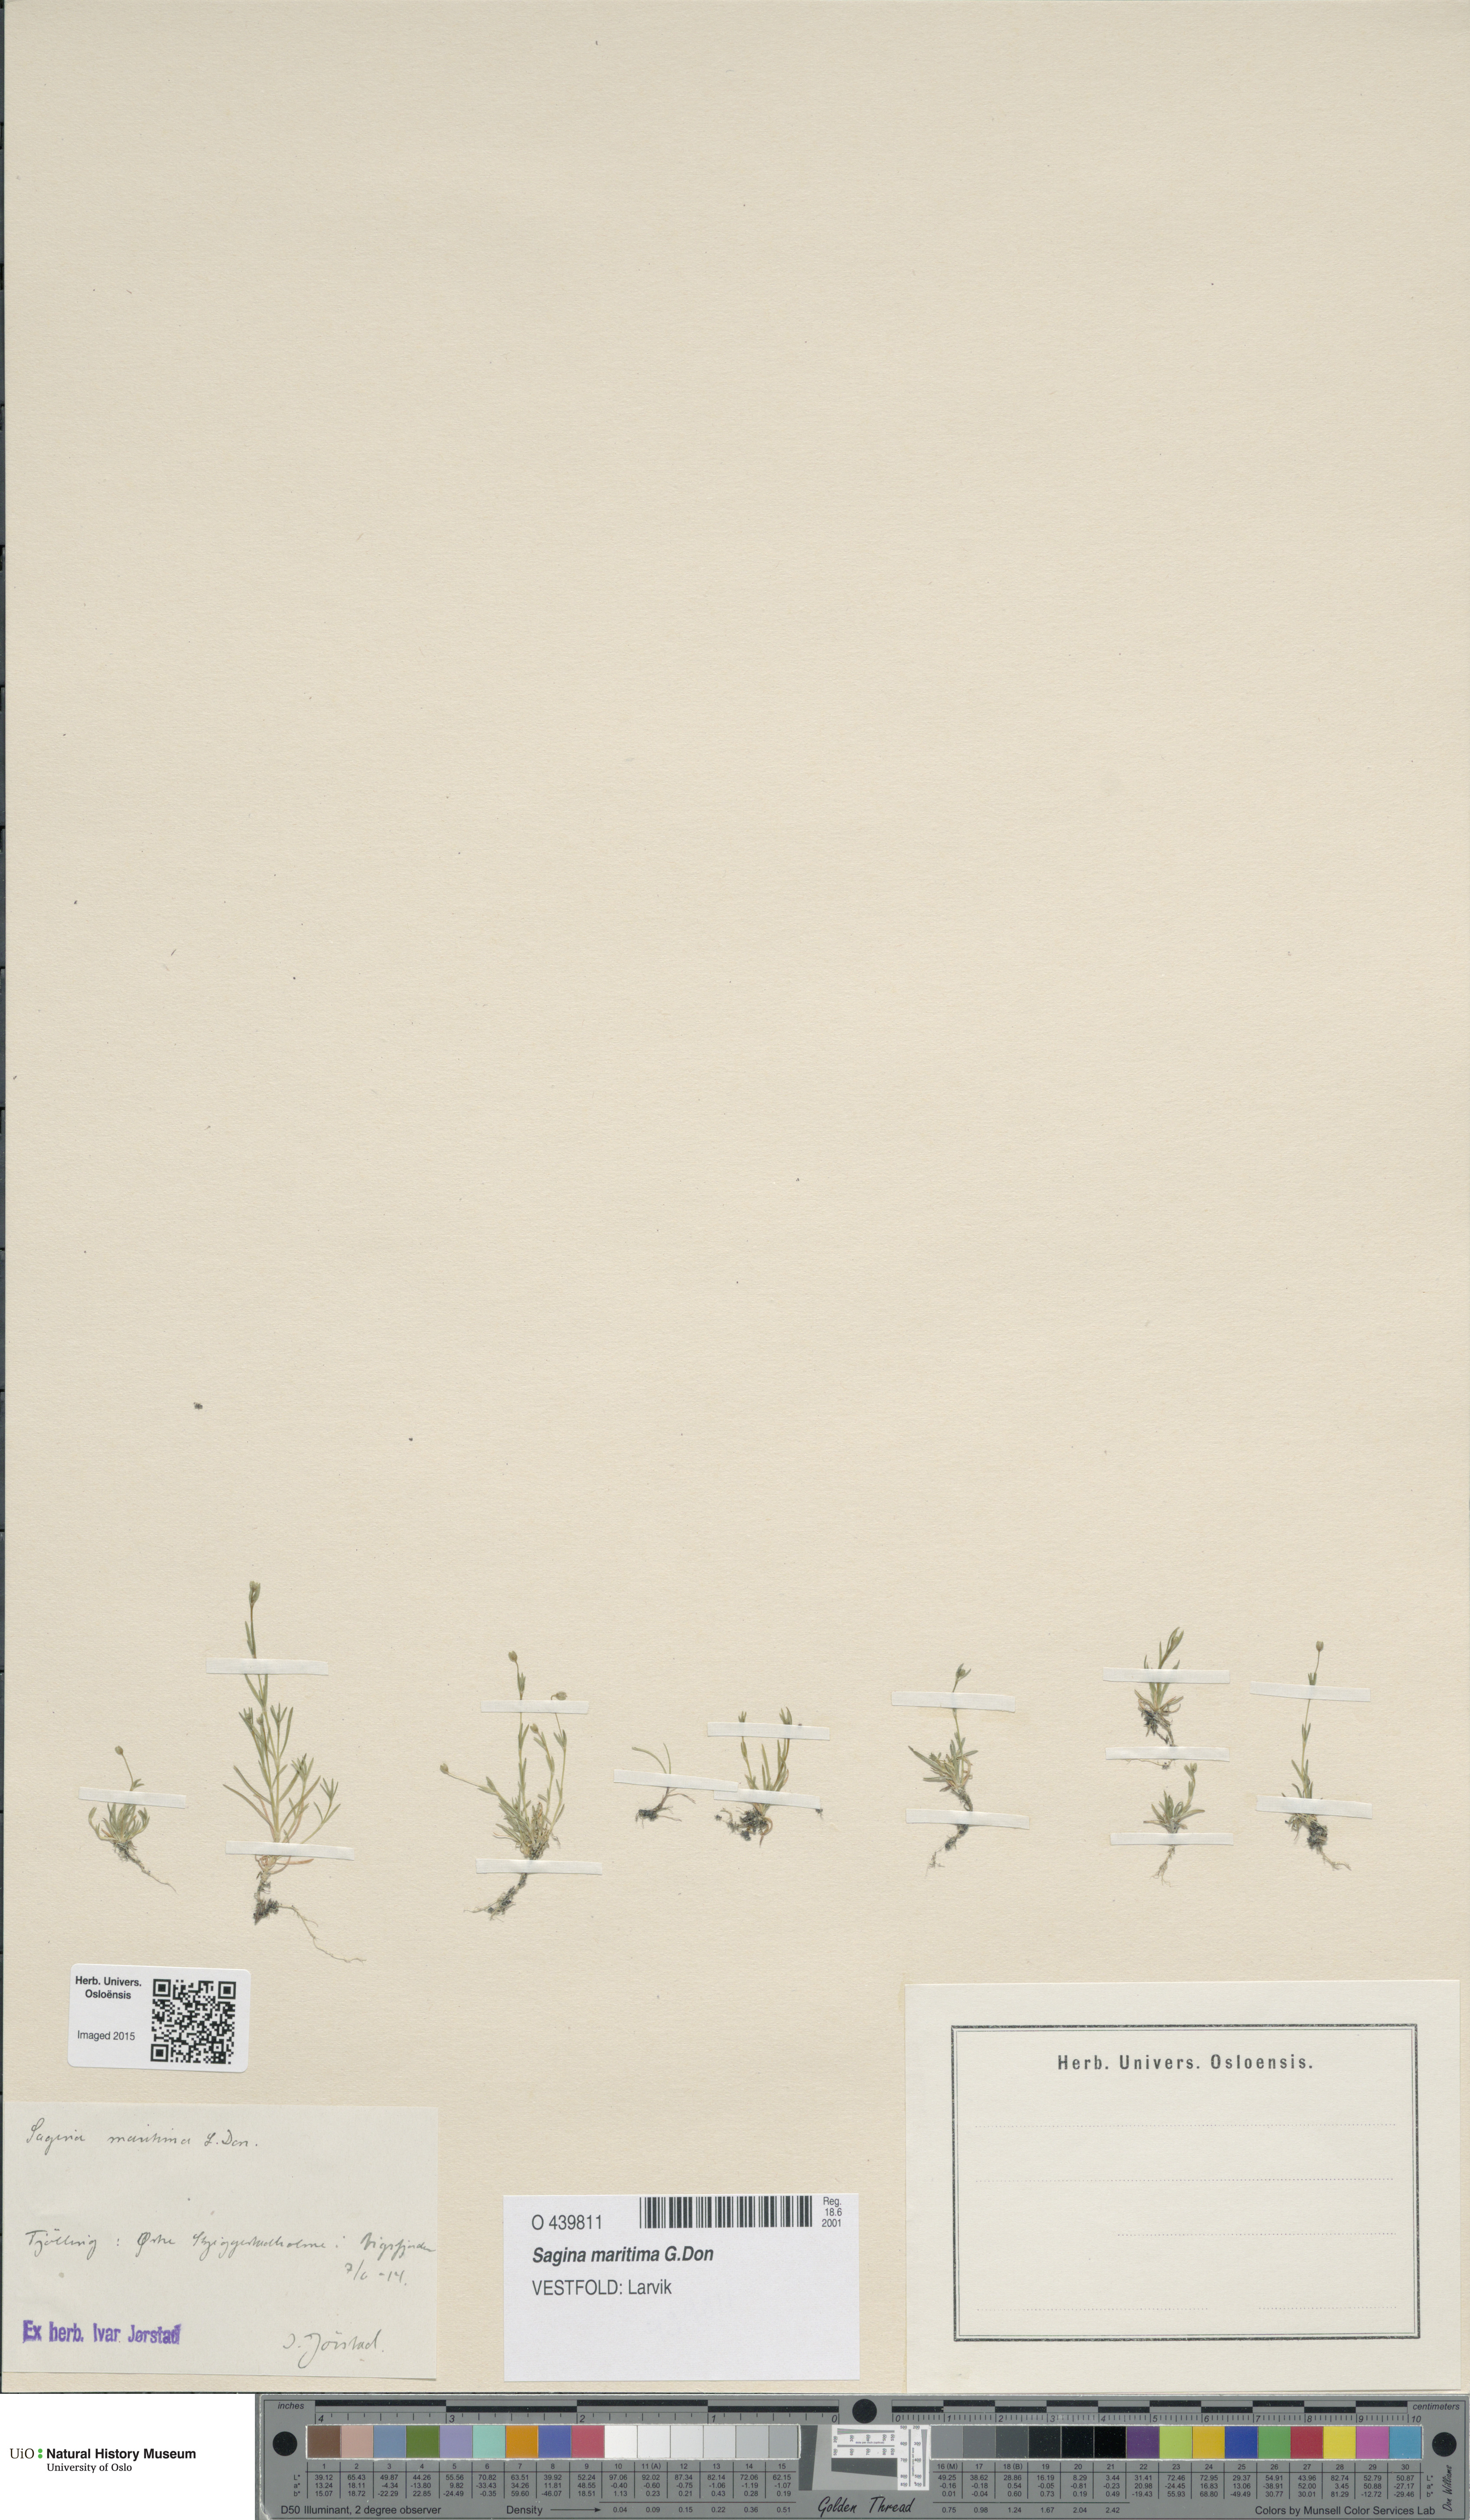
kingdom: Plantae
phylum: Tracheophyta
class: Magnoliopsida
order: Caryophyllales
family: Caryophyllaceae
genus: Sagina
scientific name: Sagina maritima
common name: Sea pearlwort
